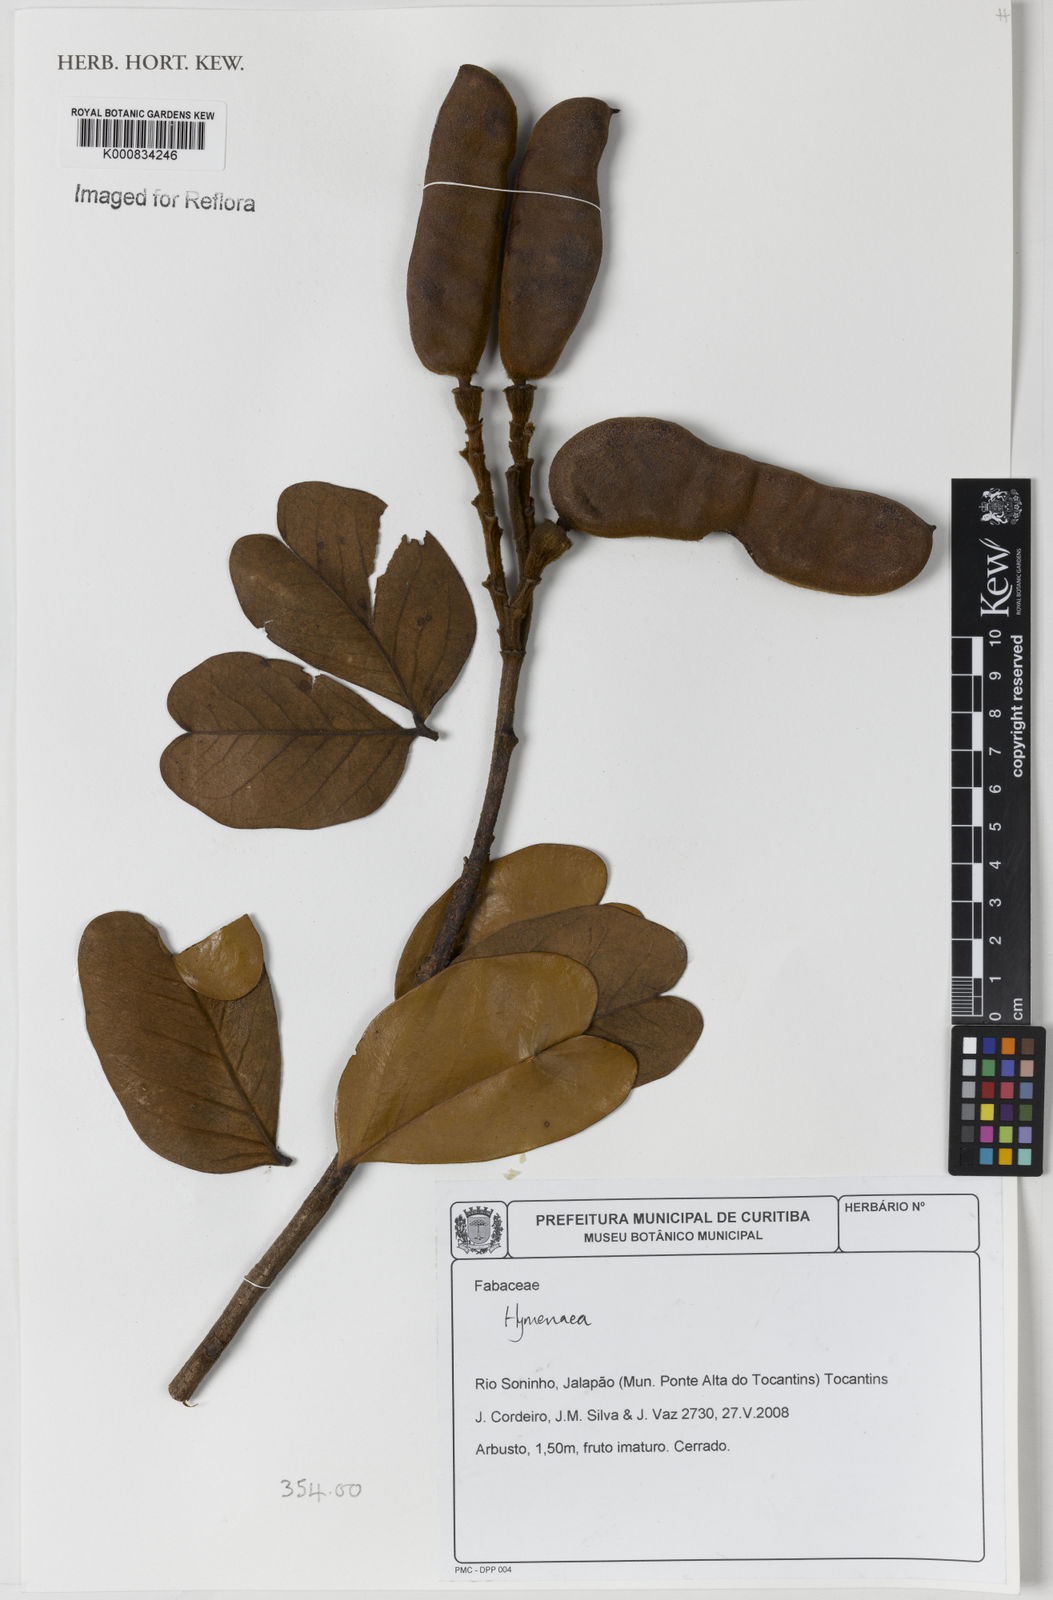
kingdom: Plantae
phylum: Tracheophyta
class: Magnoliopsida
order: Fabales
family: Fabaceae
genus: Hymenaea
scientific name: Hymenaea
